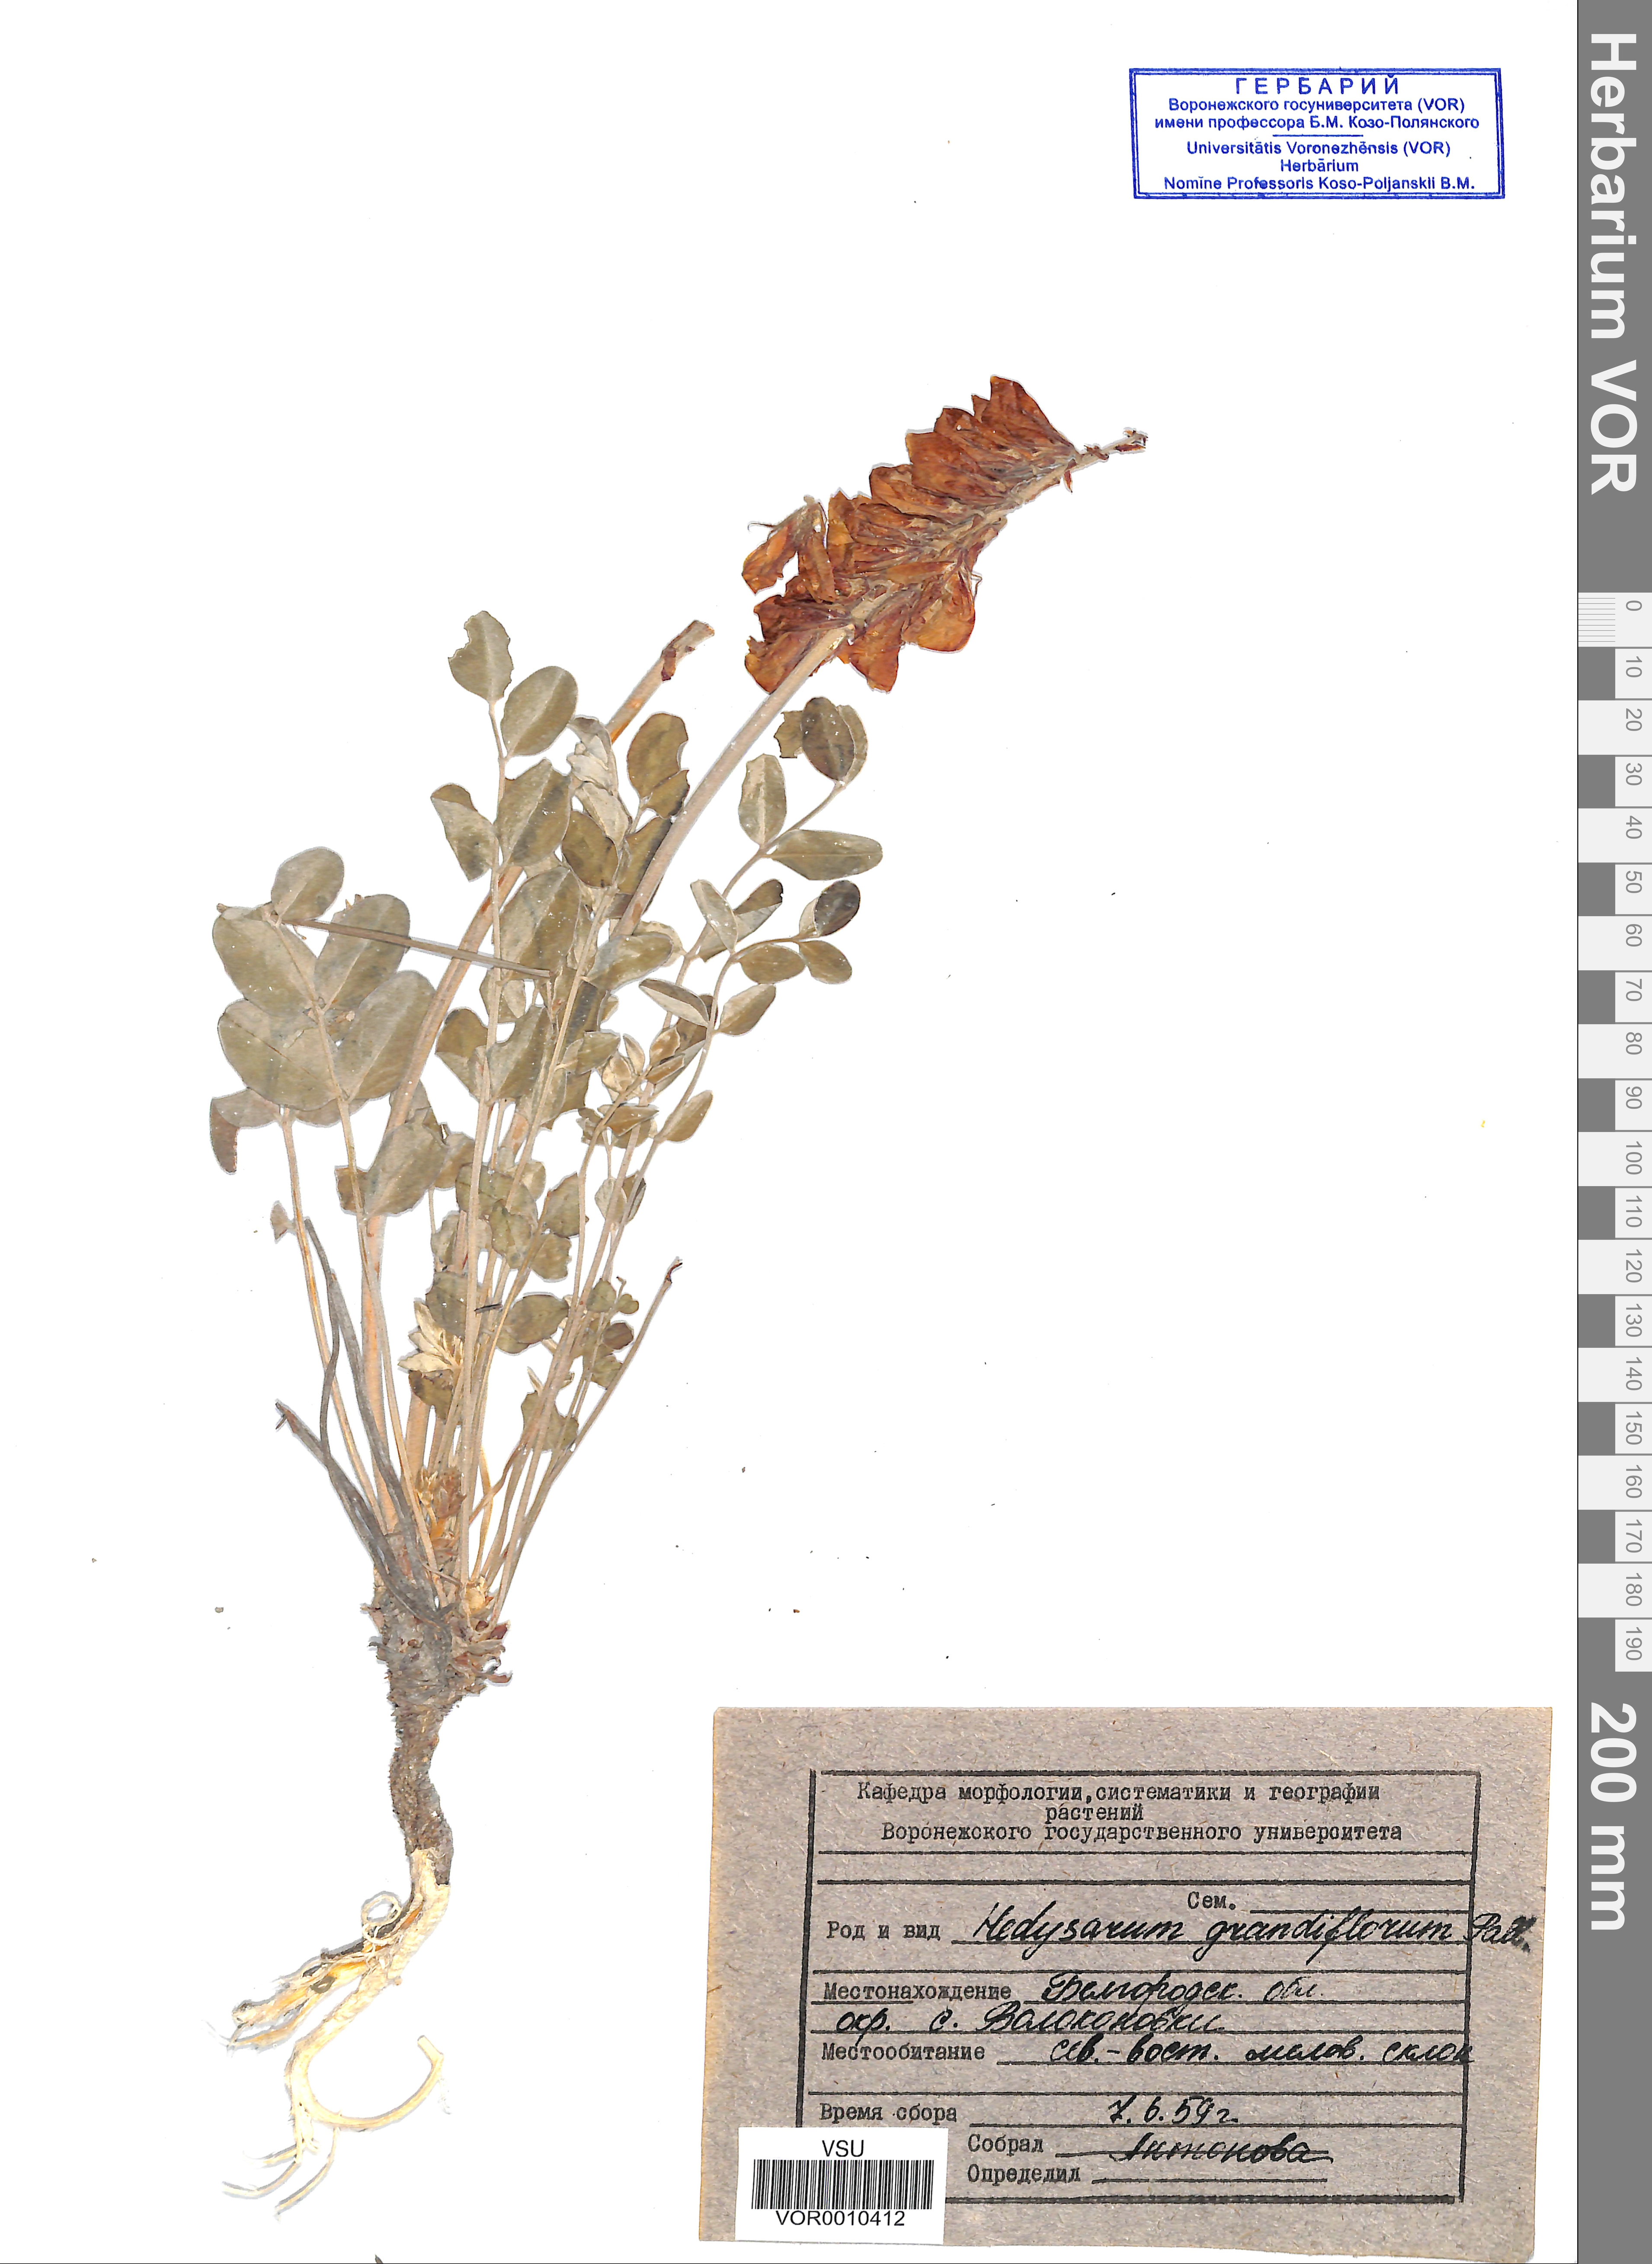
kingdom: Plantae
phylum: Tracheophyta
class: Magnoliopsida
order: Fabales
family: Fabaceae
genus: Hedysarum
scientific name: Hedysarum grandiflorum
